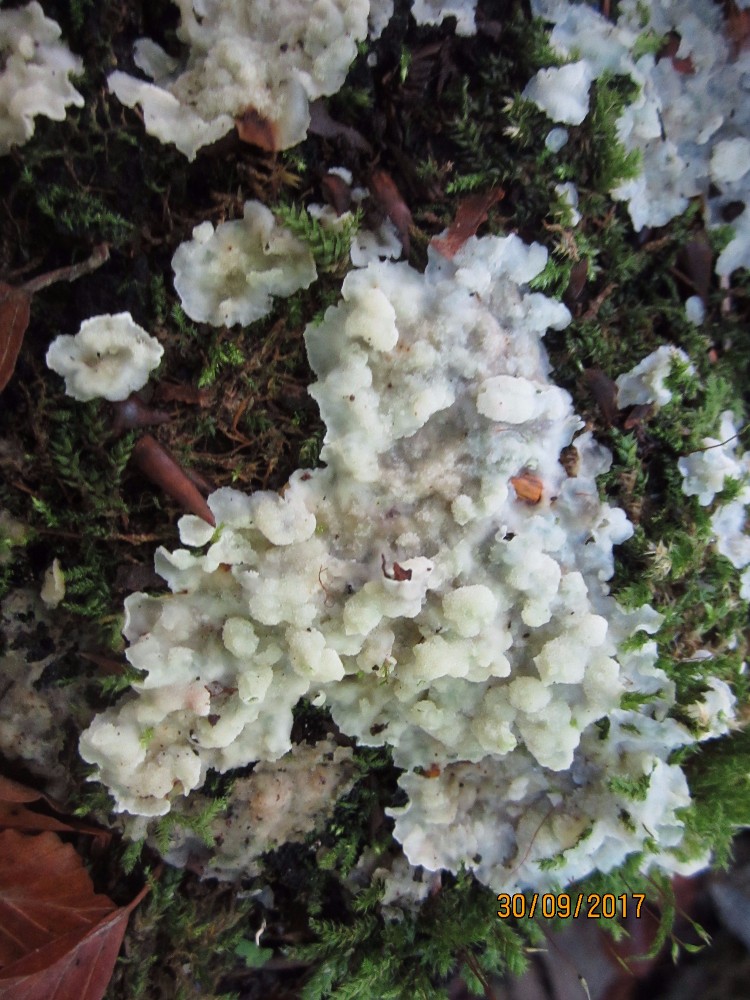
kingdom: Fungi
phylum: Basidiomycota
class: Agaricomycetes
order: Polyporales
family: Meruliaceae
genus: Physisporinus
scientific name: Physisporinus vitreus
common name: mastesvamp
